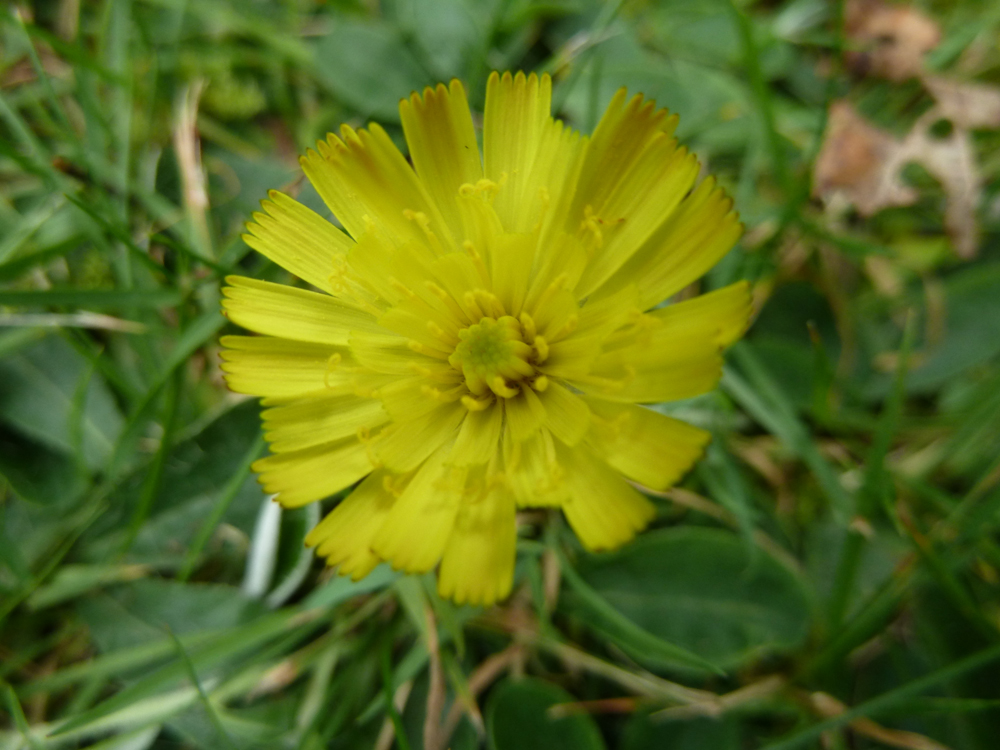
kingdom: Plantae
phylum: Tracheophyta
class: Magnoliopsida
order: Asterales
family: Asteraceae
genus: Pilosella
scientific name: Pilosella officinarum
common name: Mouse-ear hawkweed
